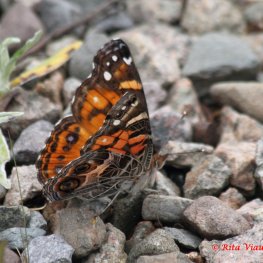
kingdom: Animalia
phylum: Arthropoda
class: Insecta
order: Lepidoptera
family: Nymphalidae
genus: Vanessa
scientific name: Vanessa virginiensis
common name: American Lady
